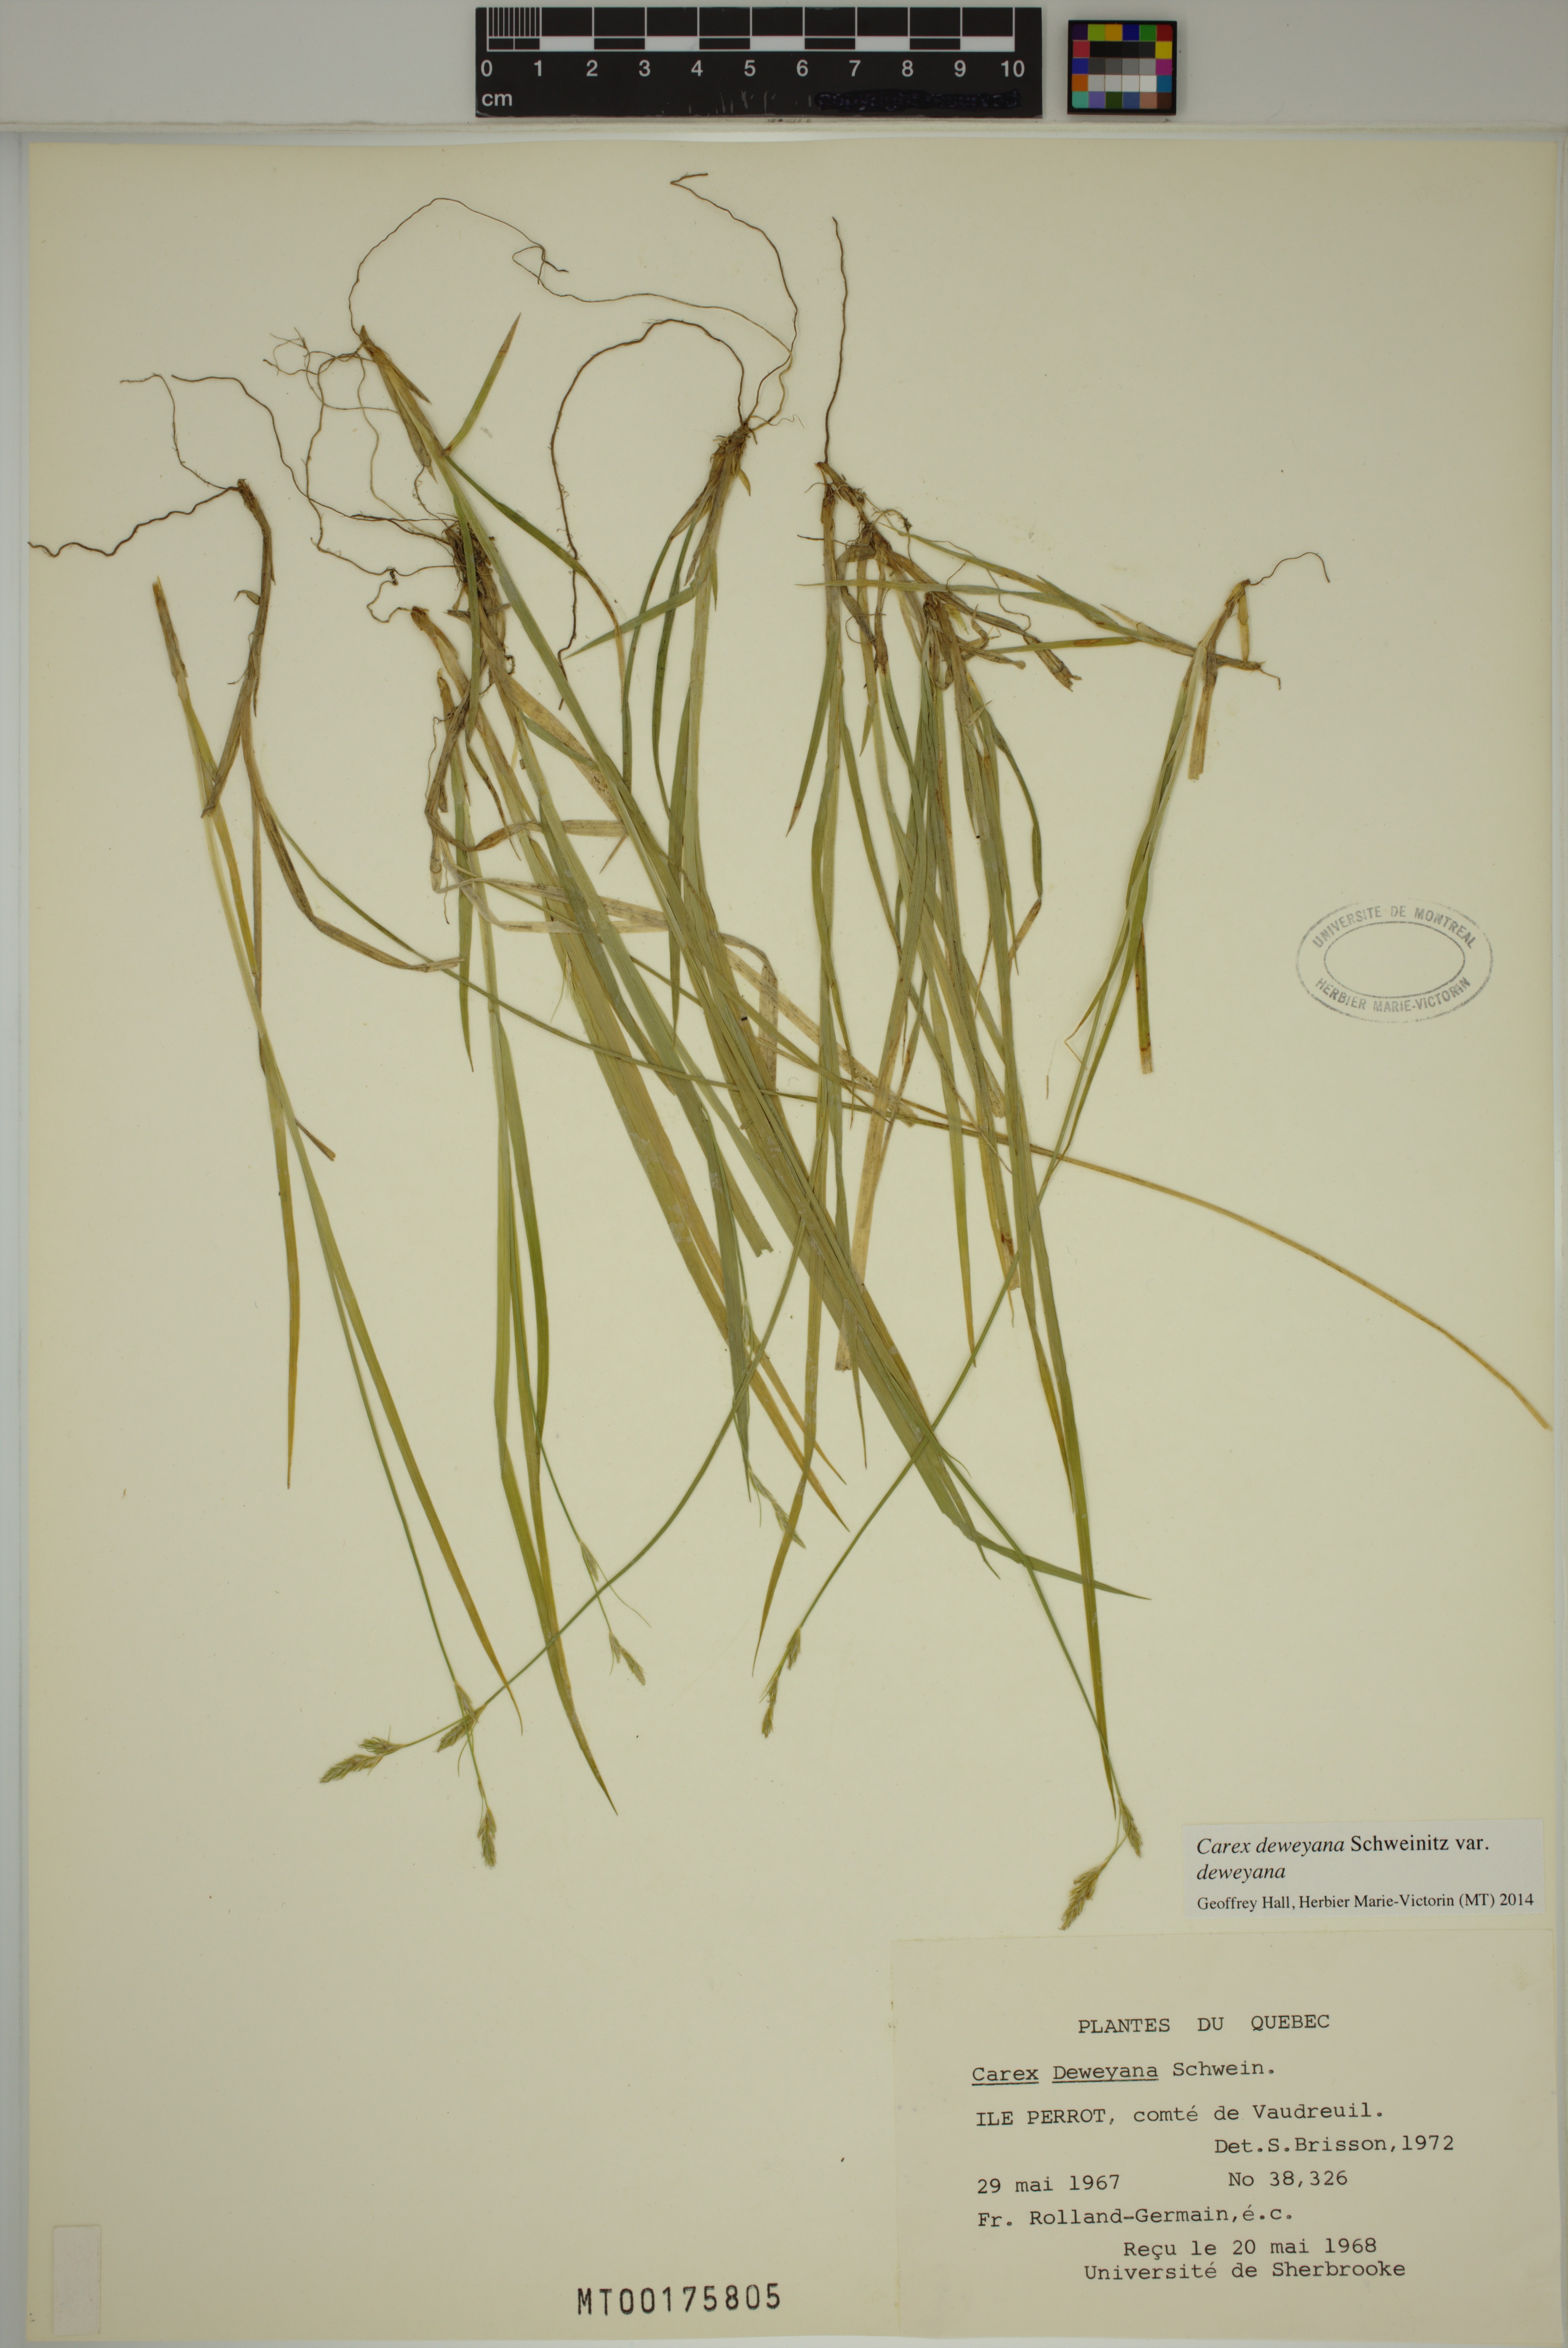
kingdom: Plantae
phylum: Tracheophyta
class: Liliopsida
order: Poales
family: Cyperaceae
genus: Carex
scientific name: Carex deweyana
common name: Dewey's sedge
